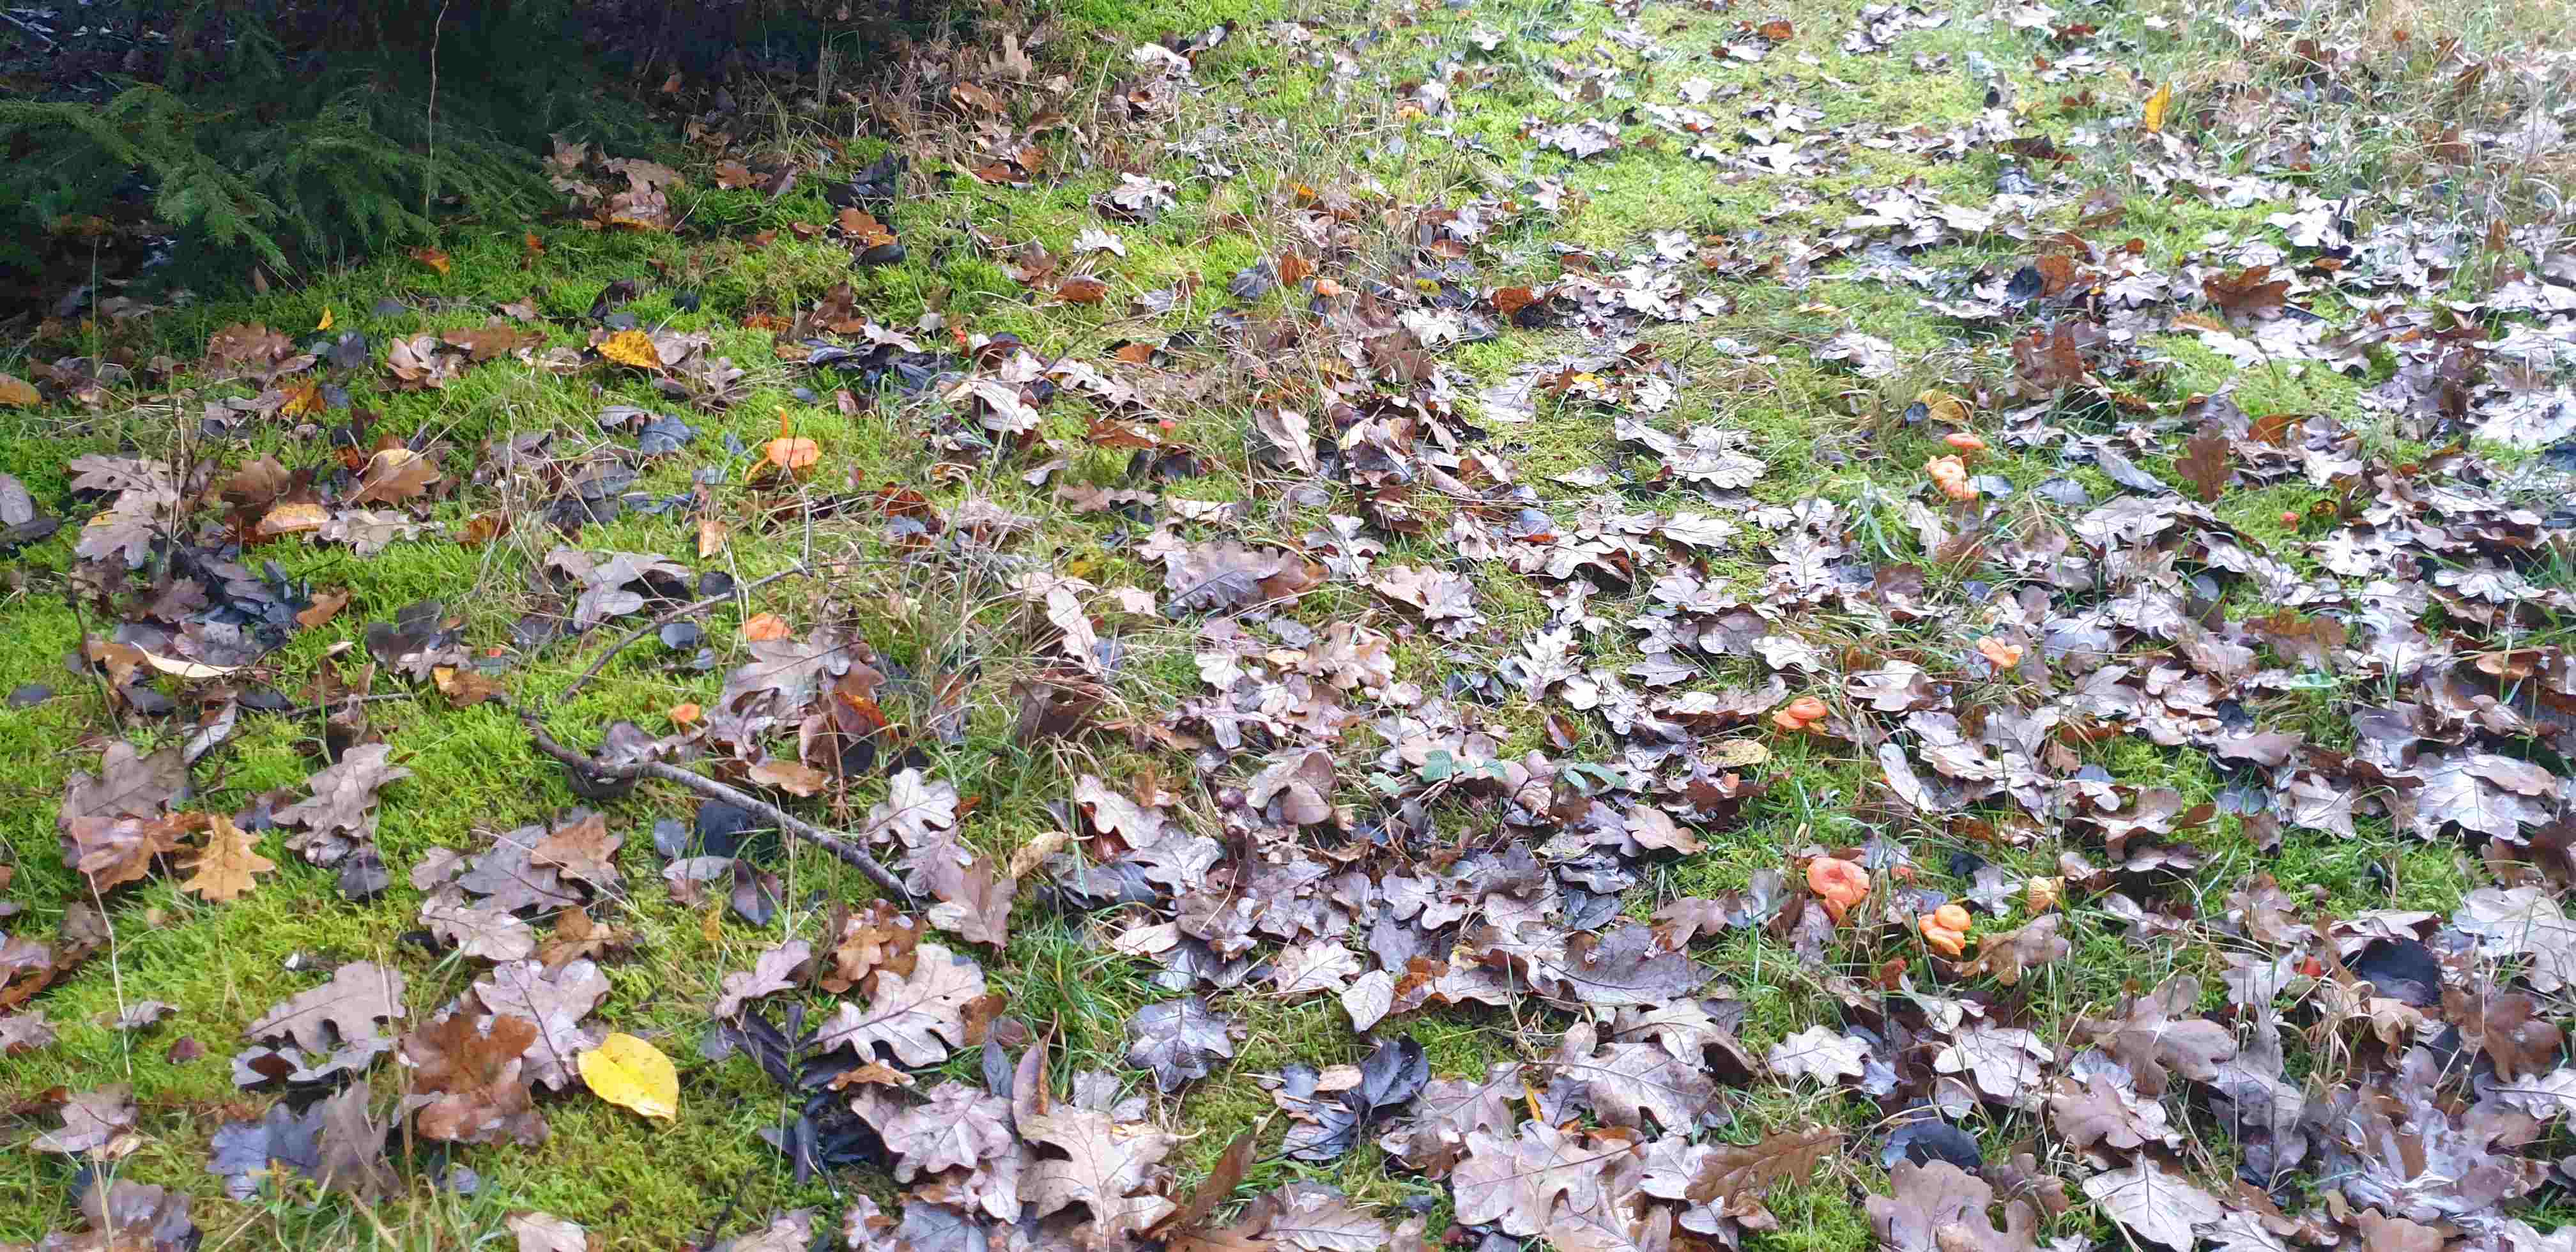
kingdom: Fungi
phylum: Basidiomycota
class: Agaricomycetes
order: Agaricales
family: Hygrophoraceae
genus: Hygrocybe
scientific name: Hygrocybe miniata
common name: mønje-vokshat
